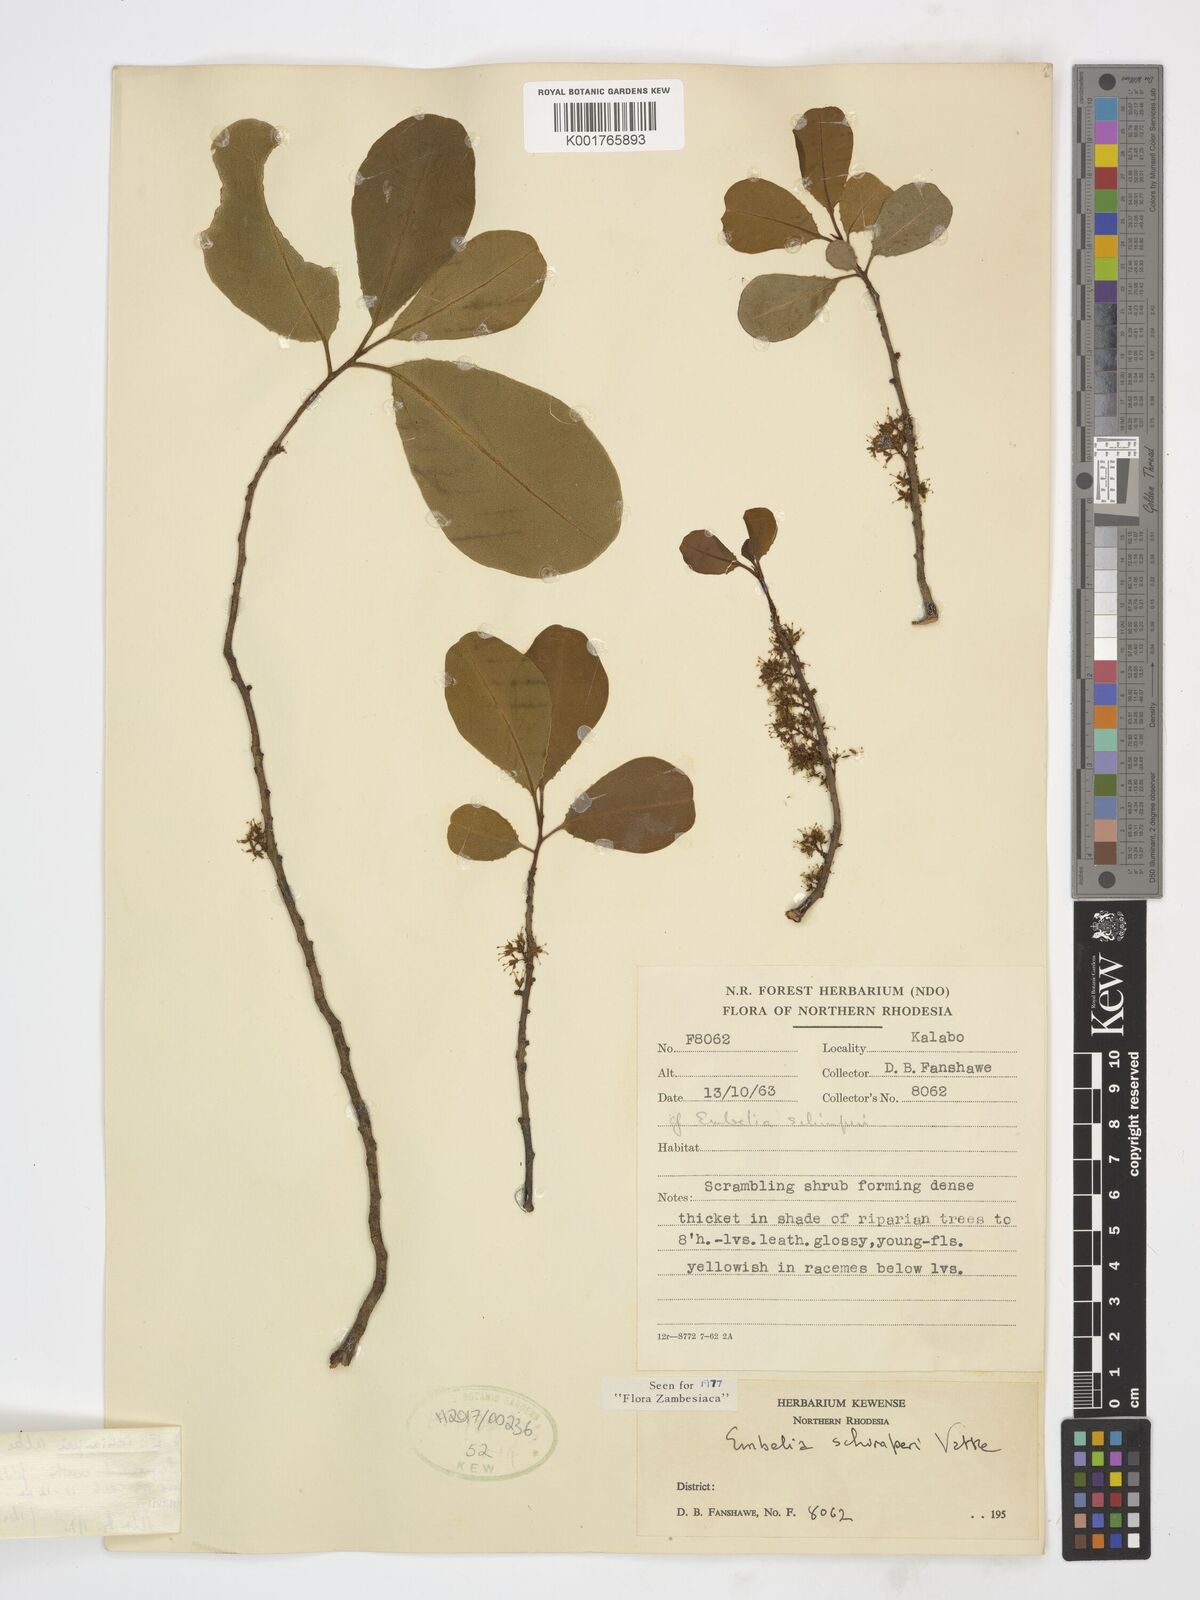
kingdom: Plantae
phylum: Tracheophyta
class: Magnoliopsida
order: Ericales
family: Primulaceae
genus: Embelia
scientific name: Embelia schimperi
